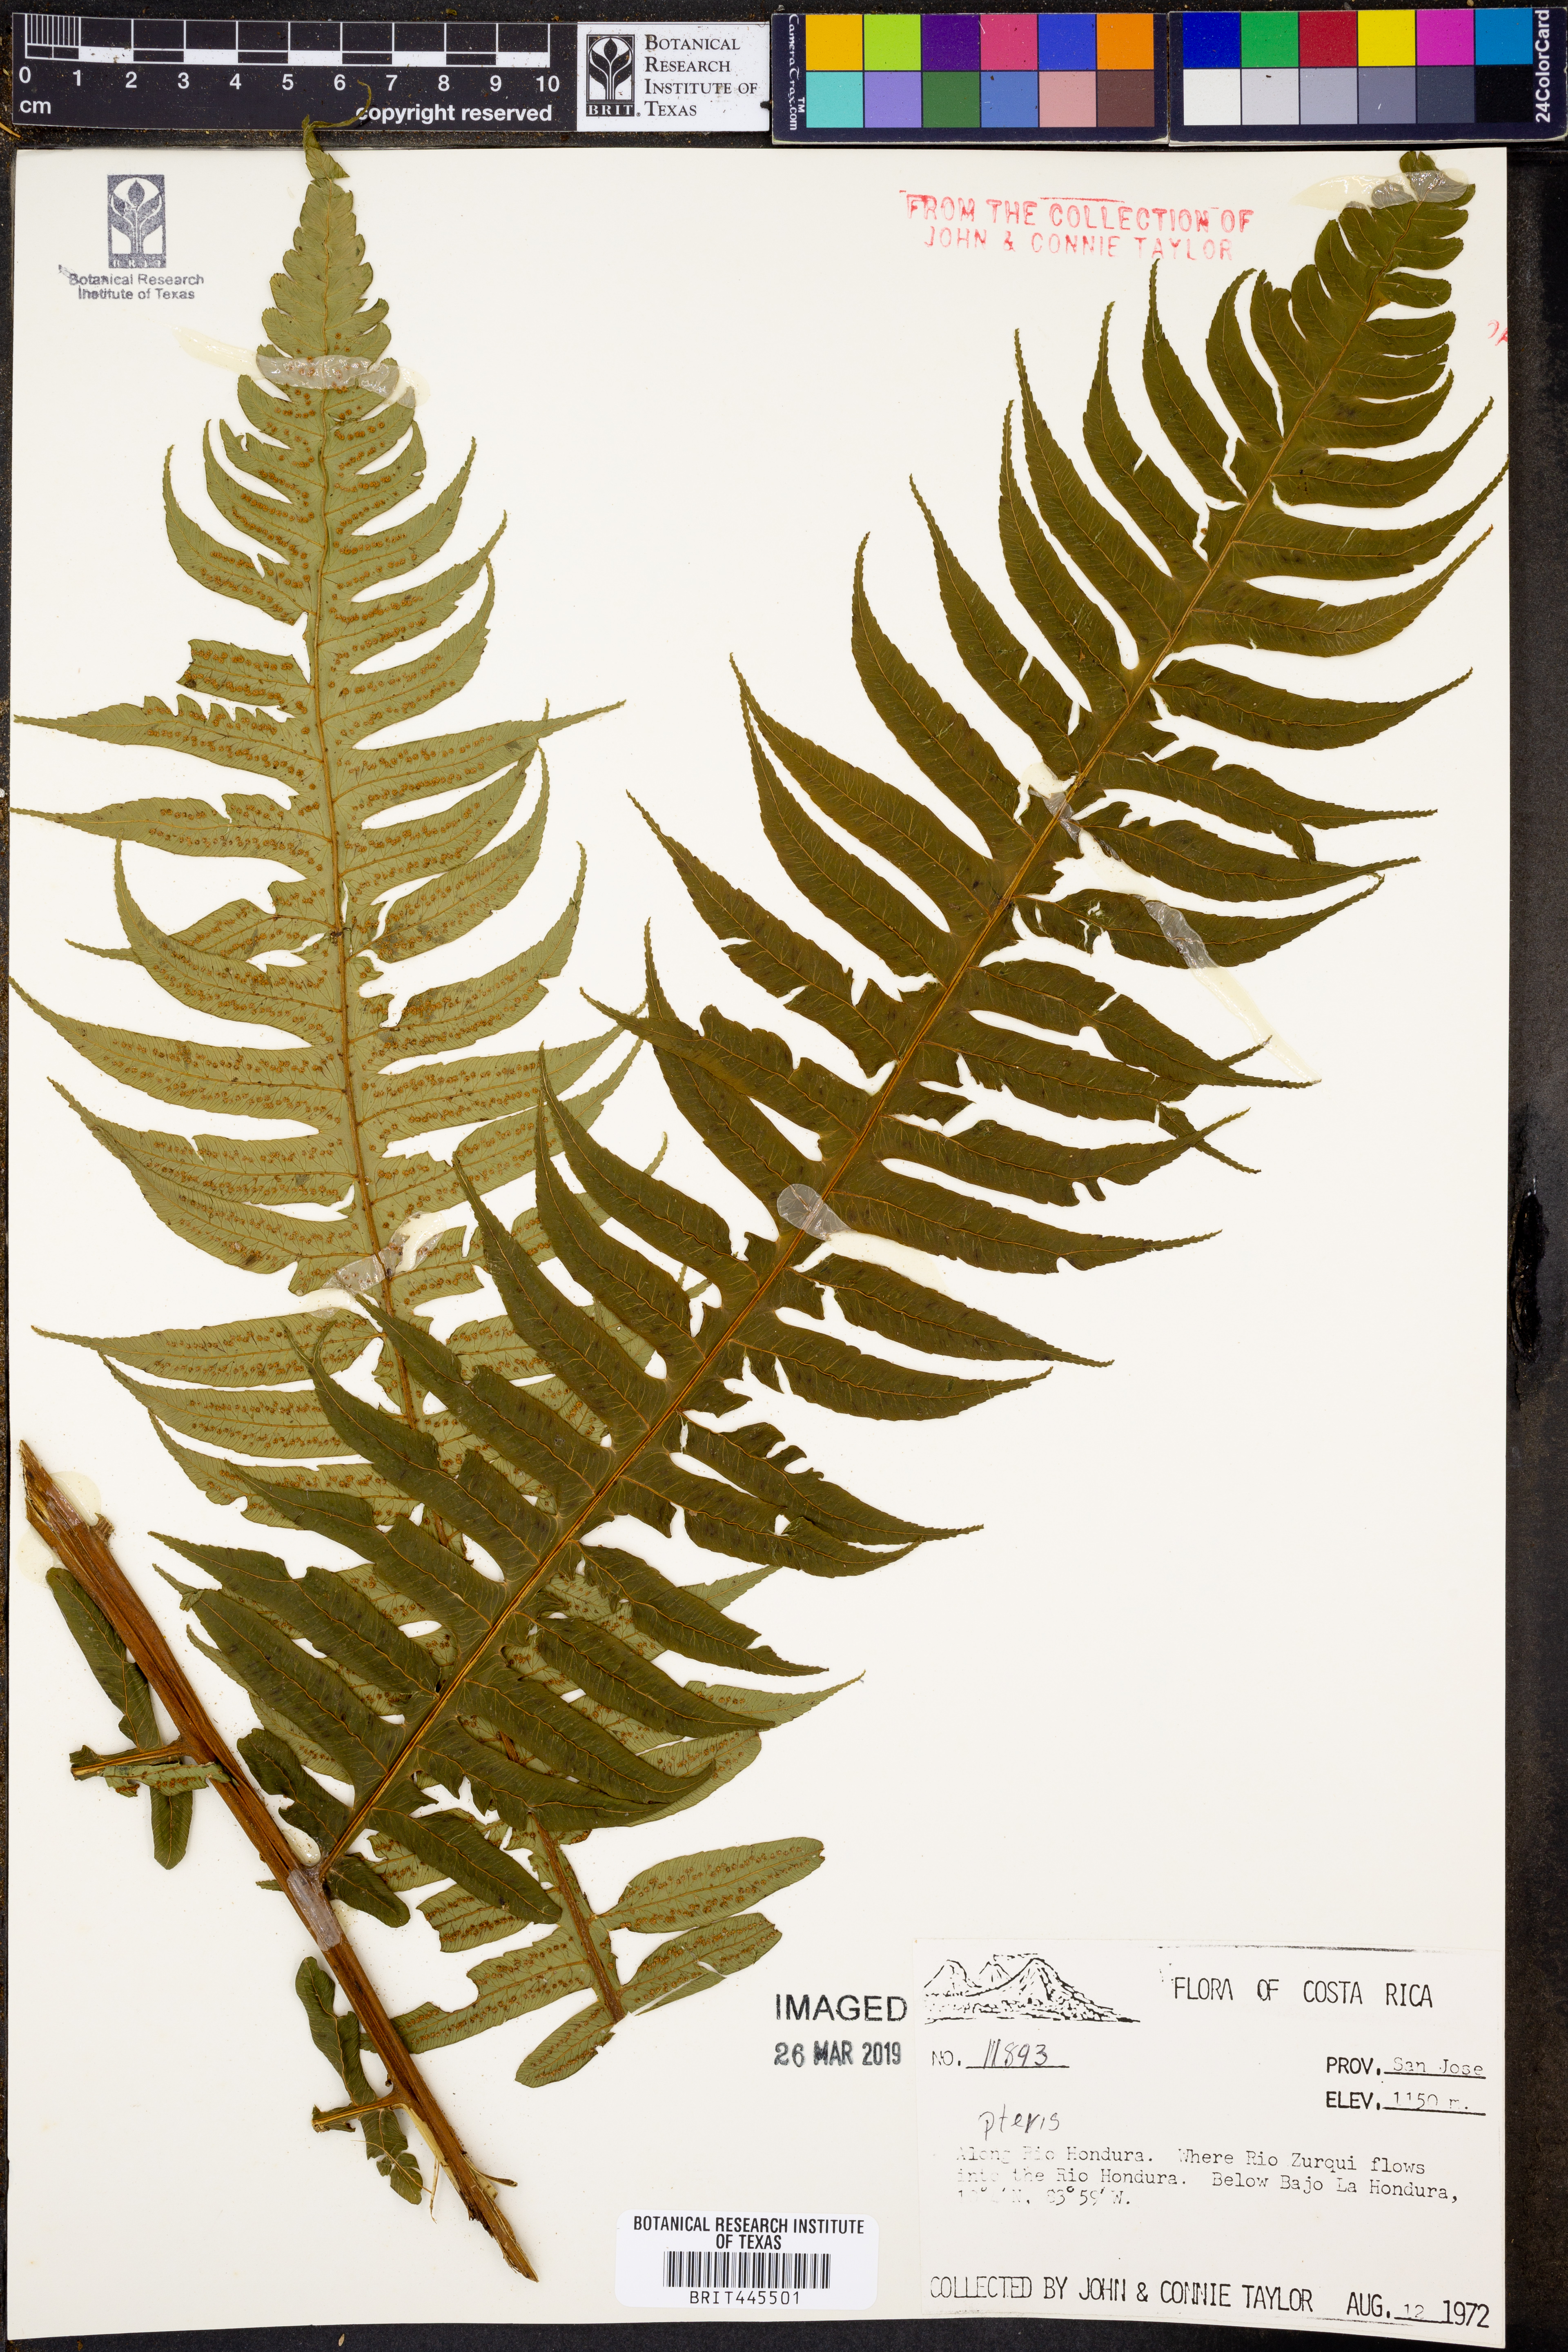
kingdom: Plantae
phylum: Tracheophyta
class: Polypodiopsida
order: Polypodiales
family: Pteridaceae
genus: Pteris
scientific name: Pteris
